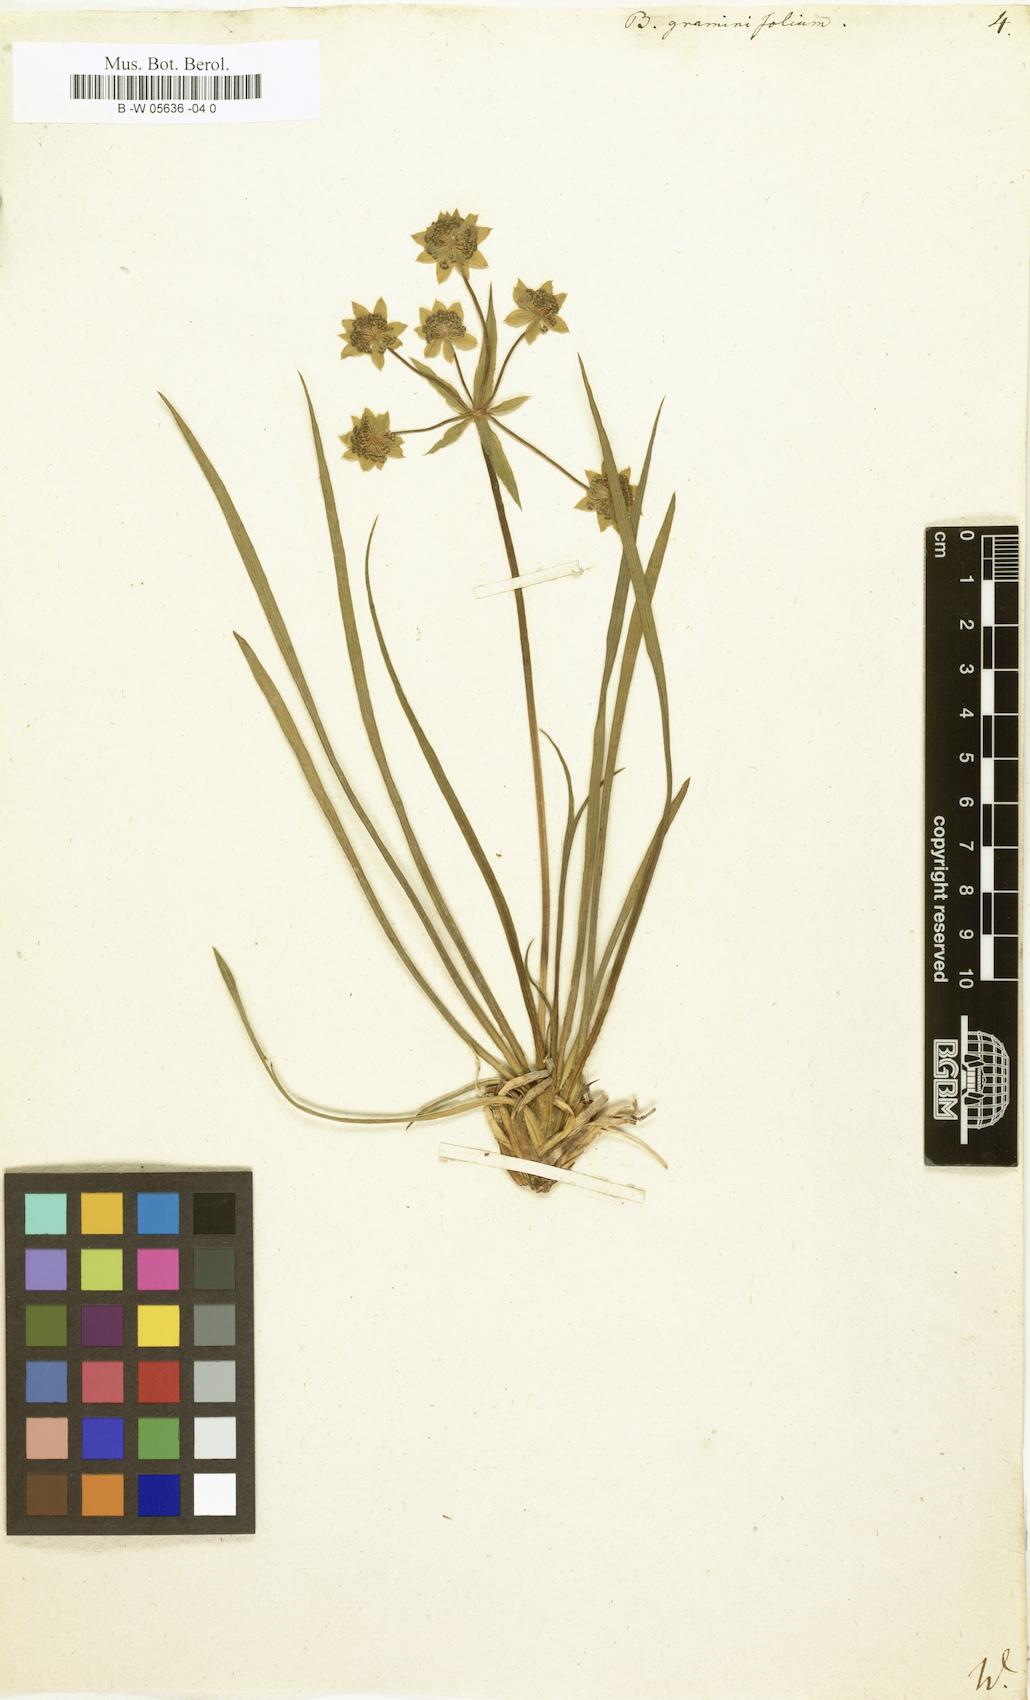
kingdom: Plantae
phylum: Tracheophyta
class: Magnoliopsida
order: Apiales
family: Apiaceae
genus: Bupleurum
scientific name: Bupleurum
